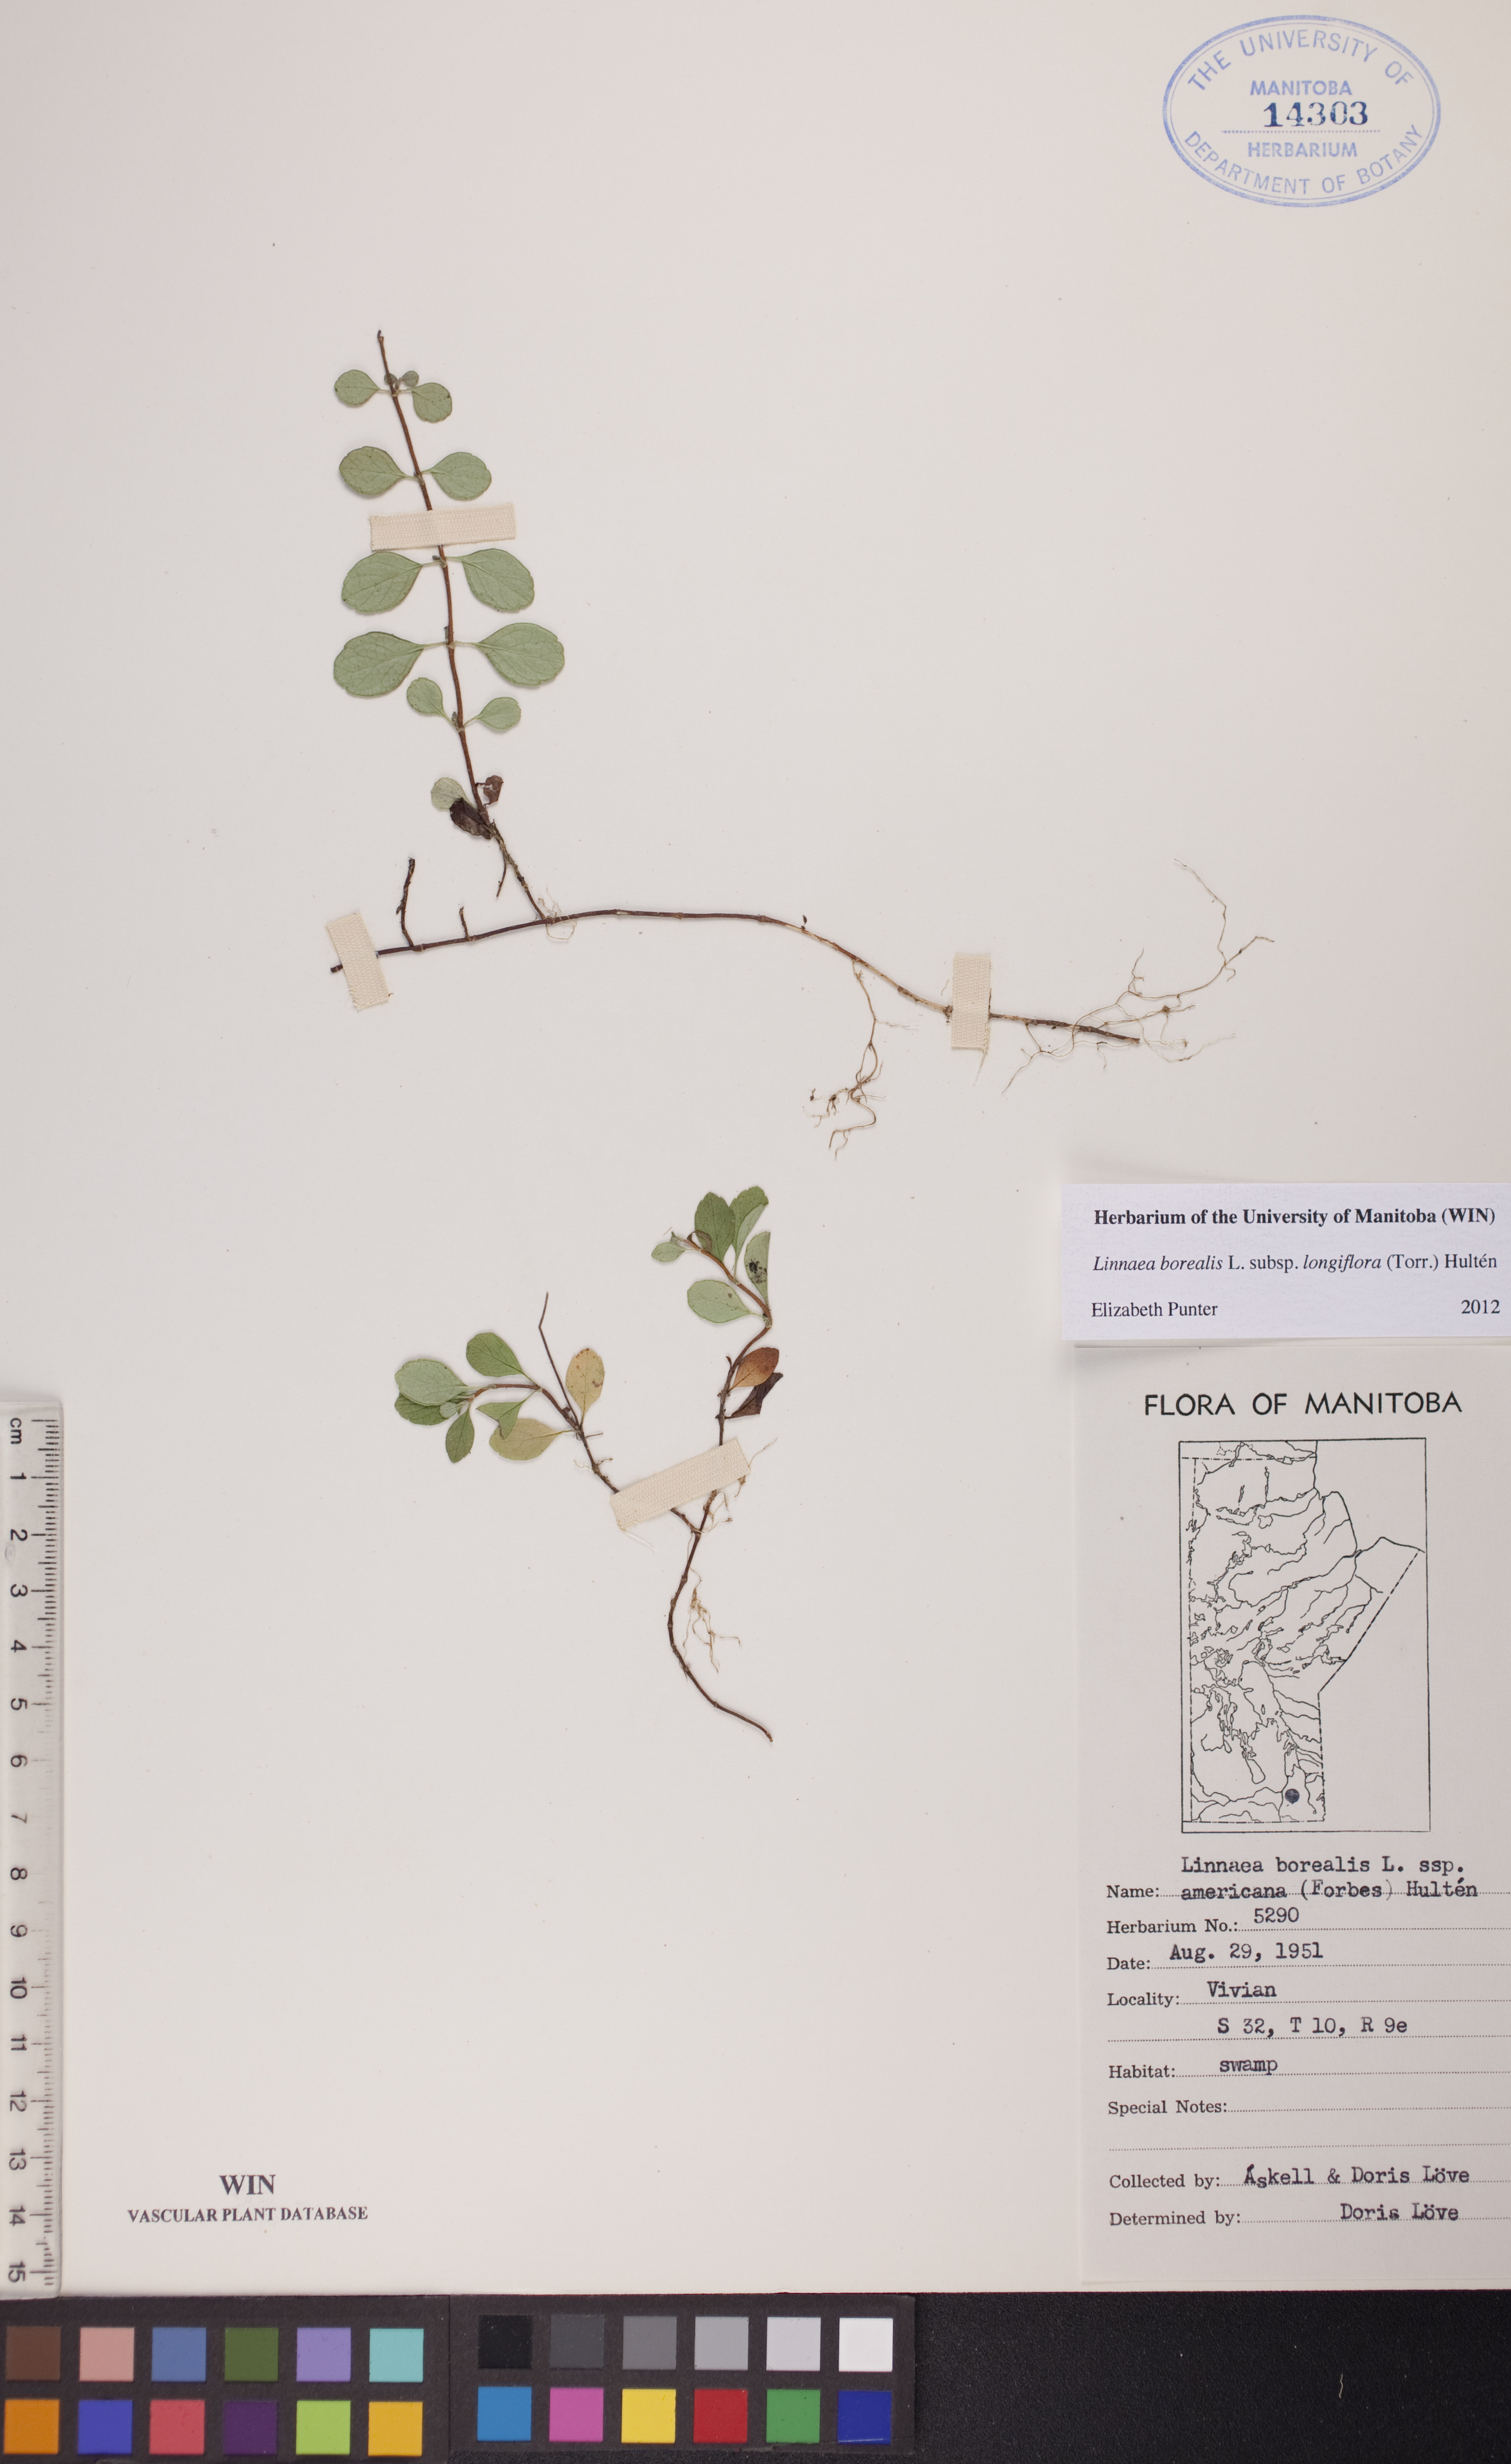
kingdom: Plantae
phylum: Tracheophyta
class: Magnoliopsida
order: Dipsacales
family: Caprifoliaceae
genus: Linnaea
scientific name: Linnaea borealis
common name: Twinflower
